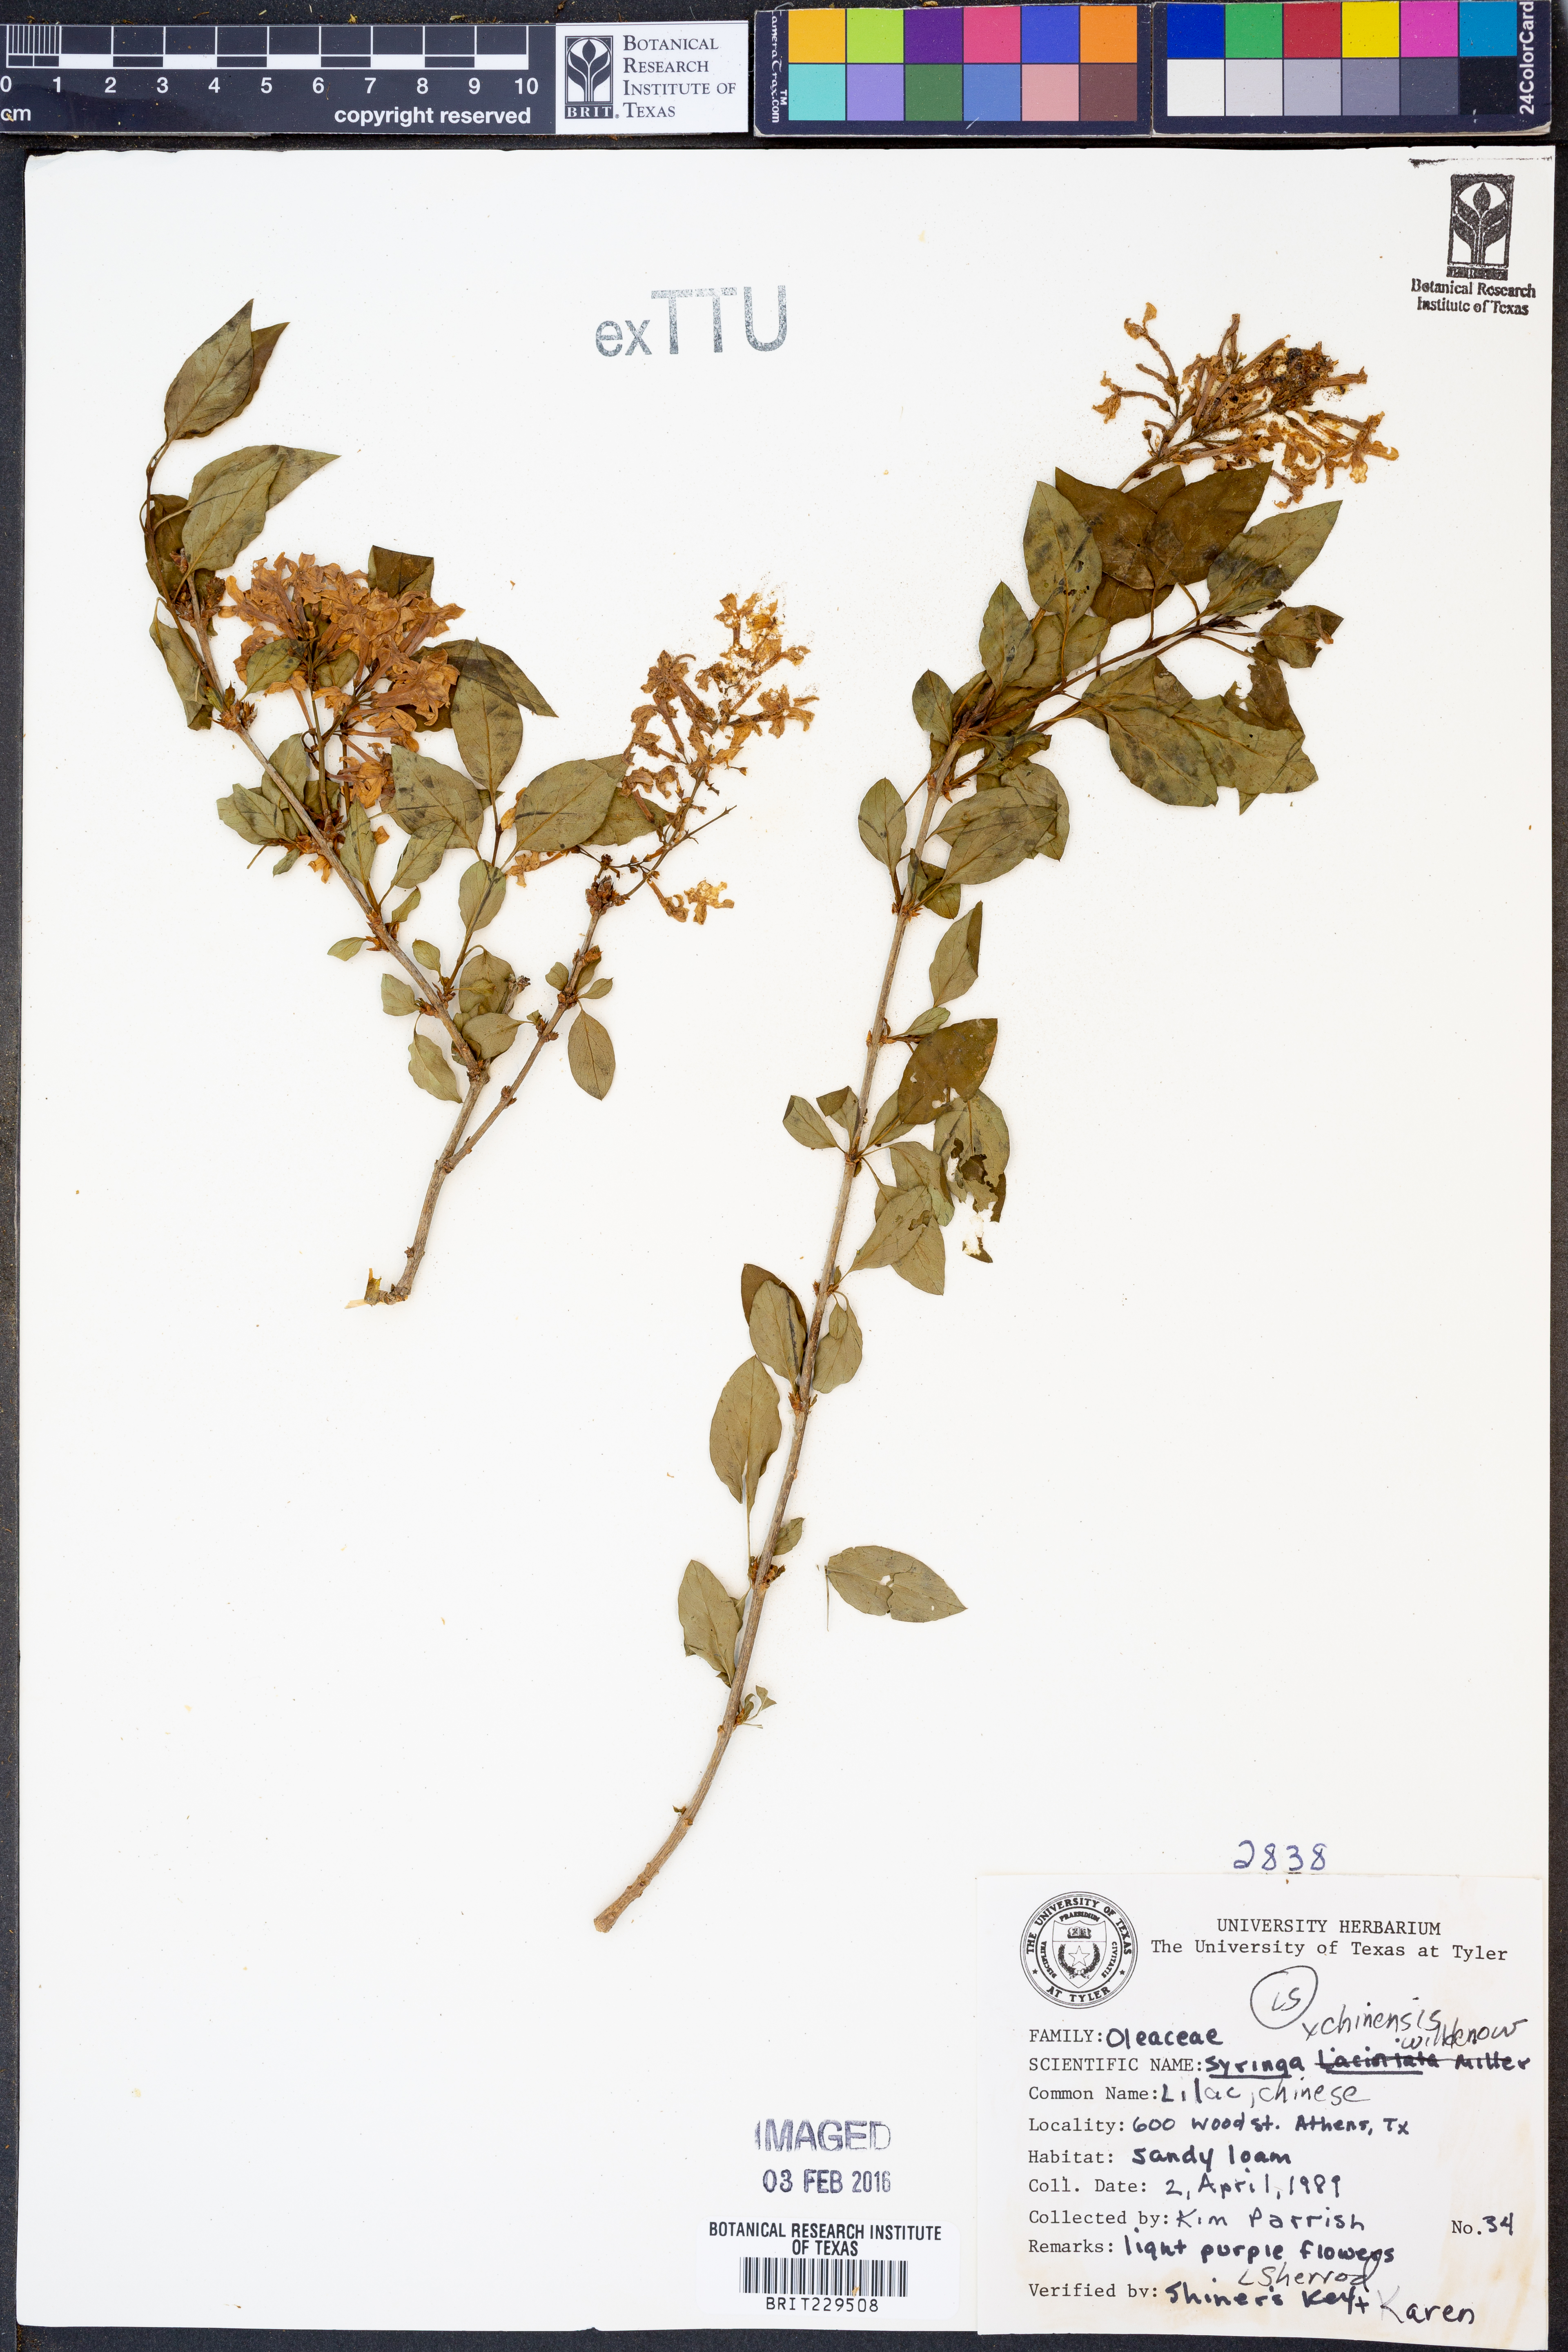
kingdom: Plantae
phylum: Tracheophyta
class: Magnoliopsida
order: Lamiales
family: Oleaceae
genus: Syringa
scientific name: Syringa chinensis
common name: Chinese lilac
